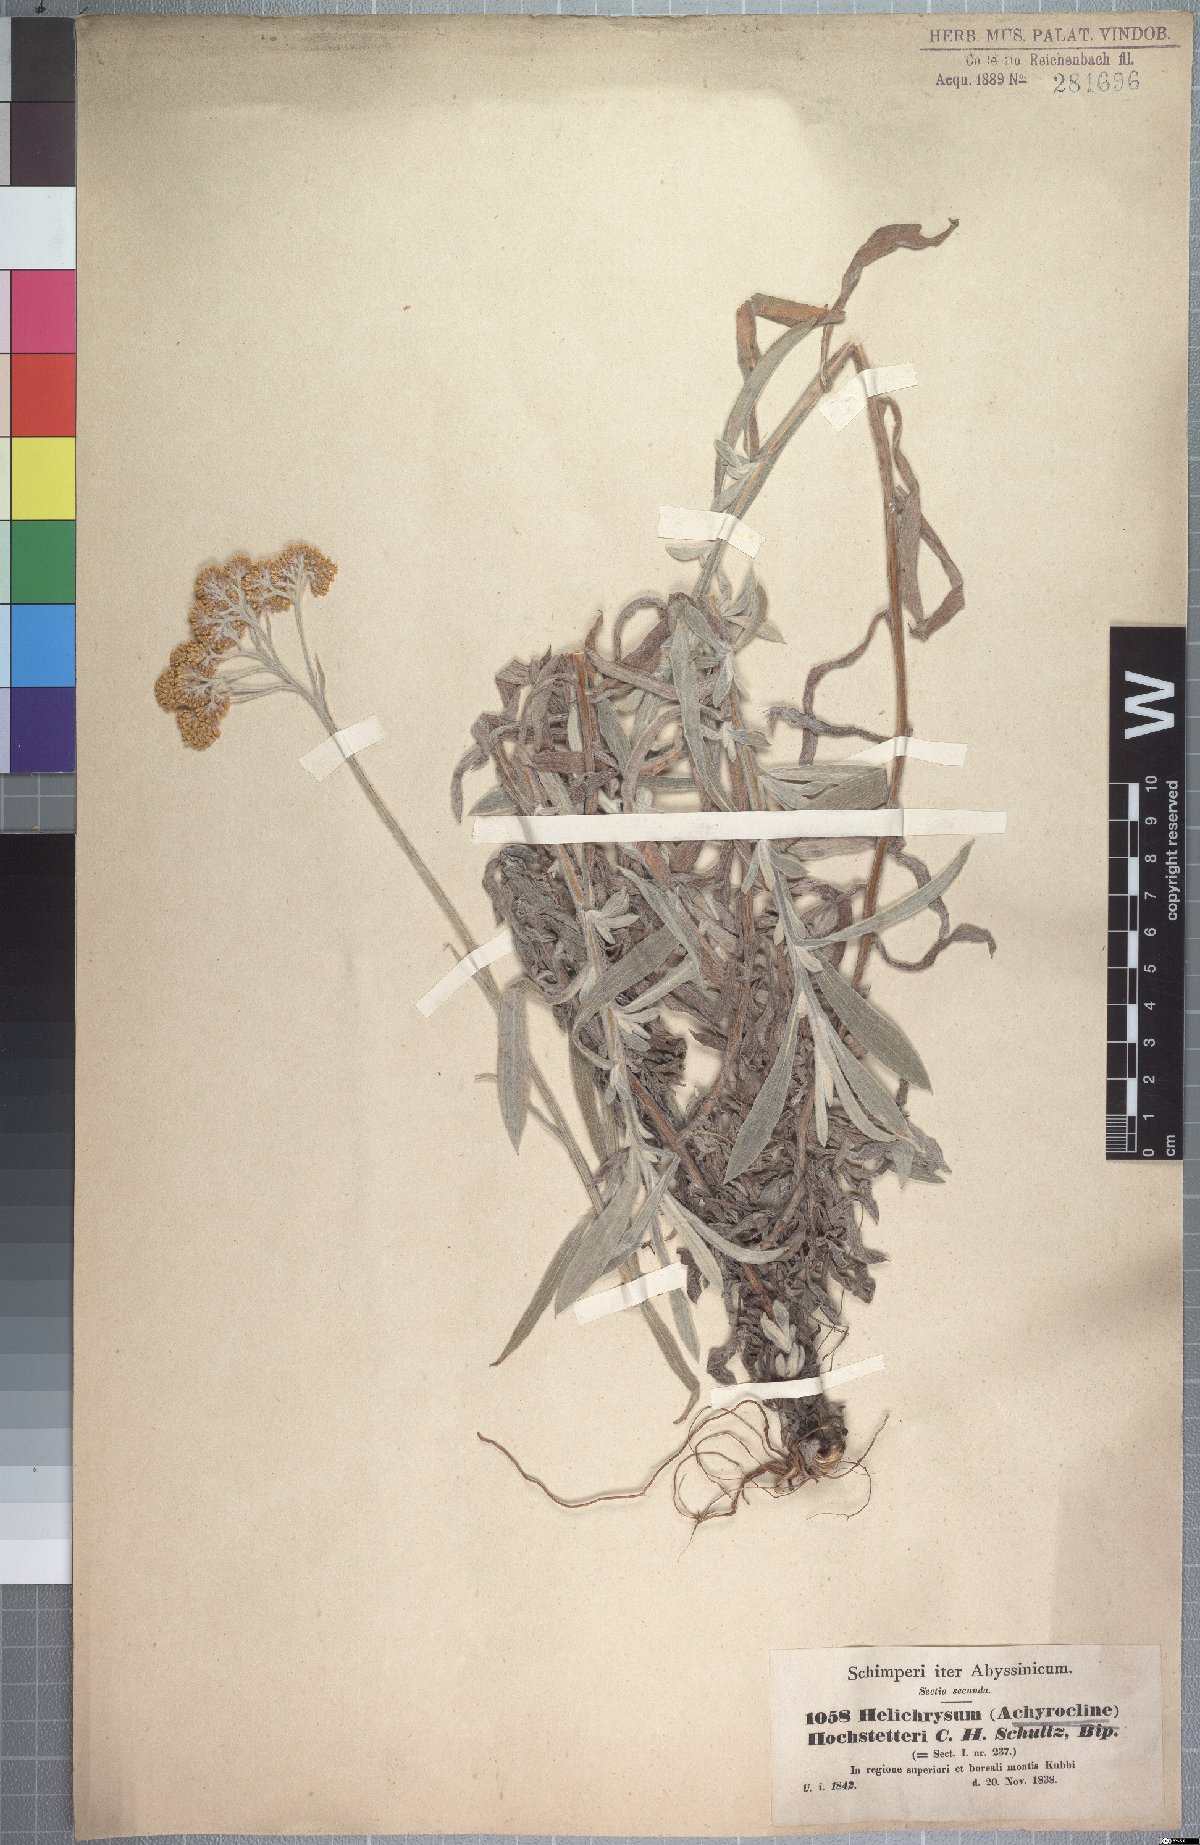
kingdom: Plantae
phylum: Tracheophyta
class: Magnoliopsida
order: Asterales
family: Asteraceae
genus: Helichrysum
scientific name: Helichrysum stenopterum
